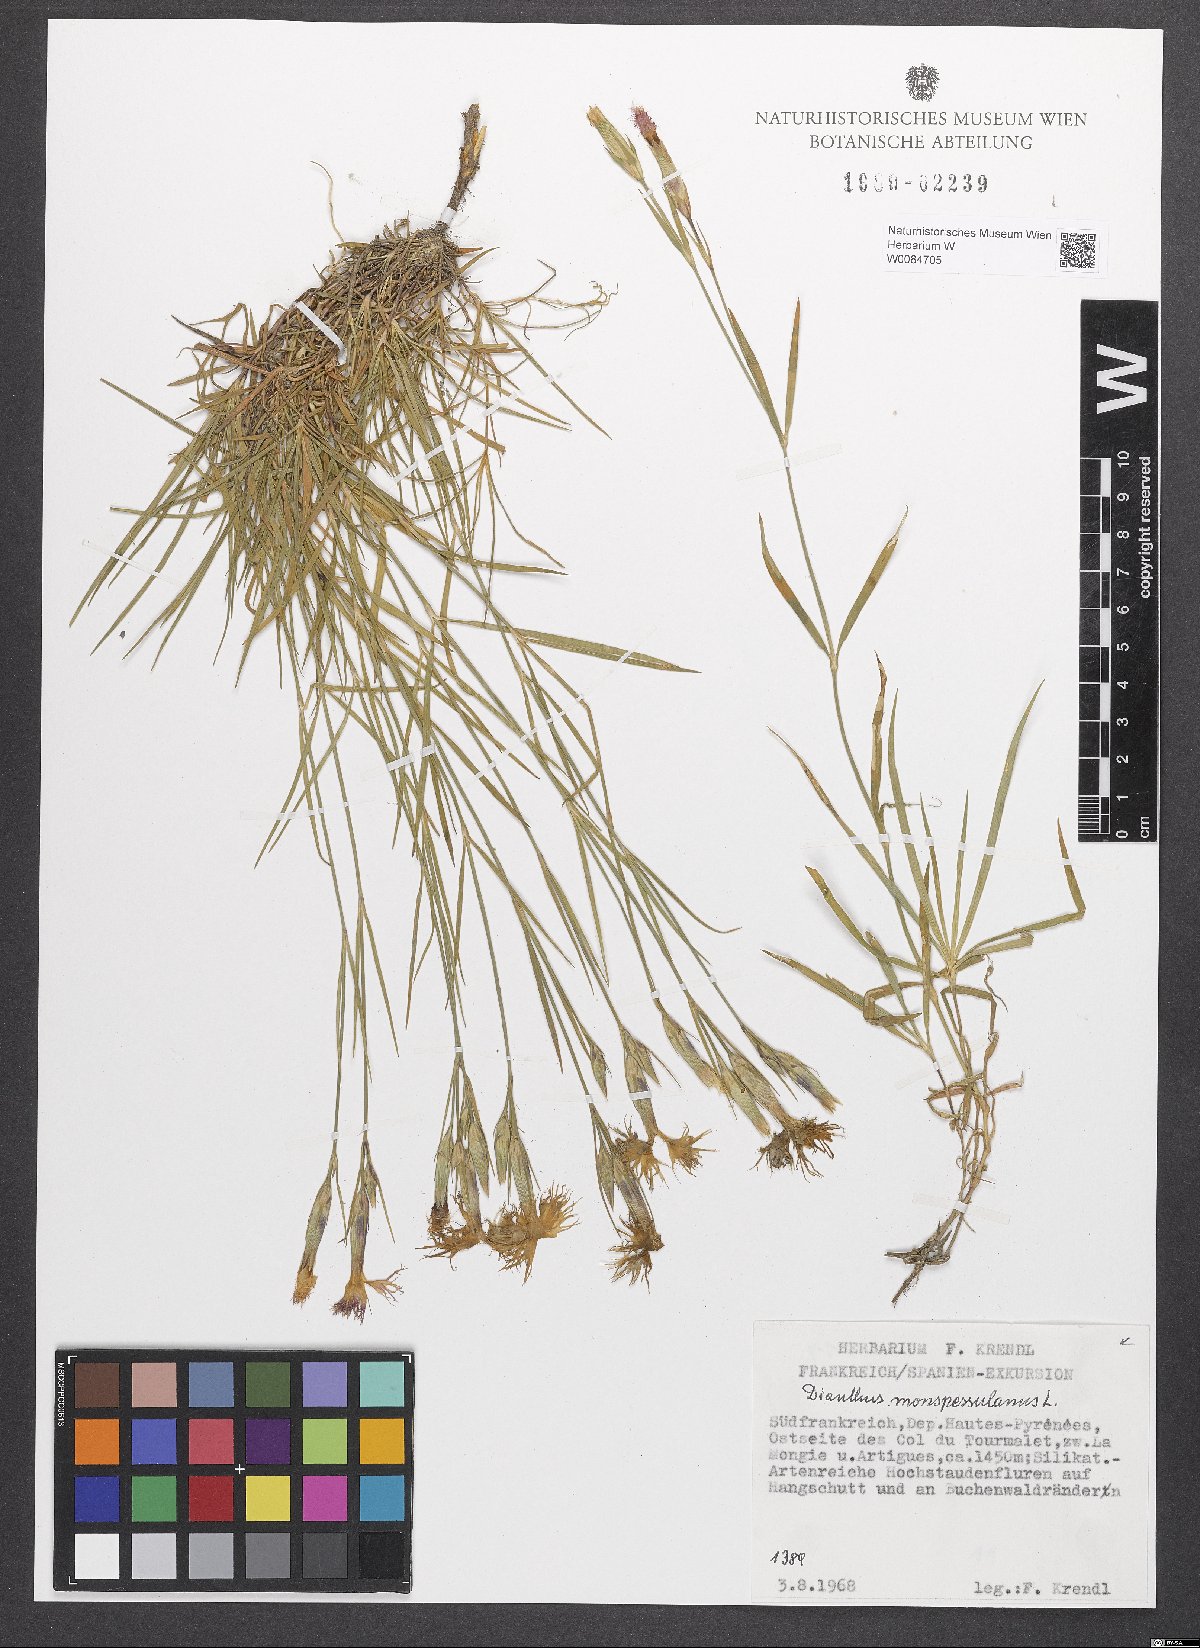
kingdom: Plantae
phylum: Tracheophyta
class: Magnoliopsida
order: Caryophyllales
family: Caryophyllaceae
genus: Dianthus
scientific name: Dianthus hyssopifolius
